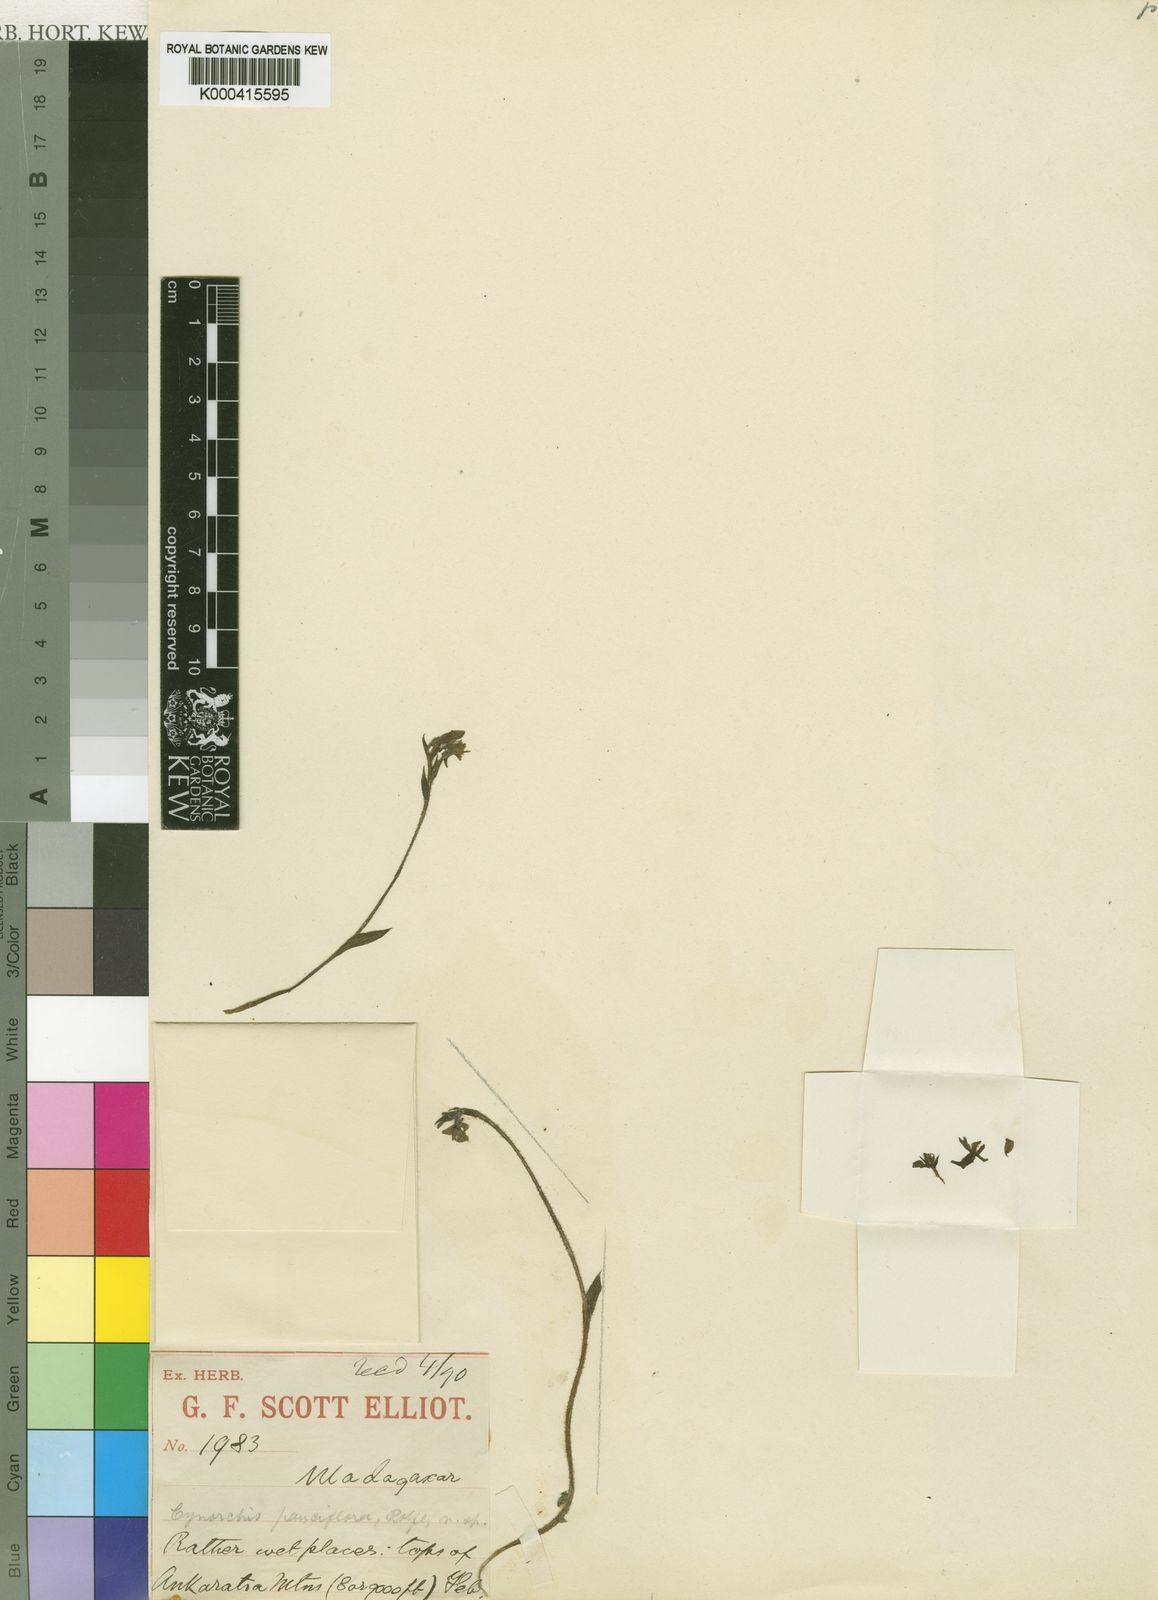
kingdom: Plantae
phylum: Tracheophyta
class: Liliopsida
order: Asparagales
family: Orchidaceae
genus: Cynorkis
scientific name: Cynorkis baronii
